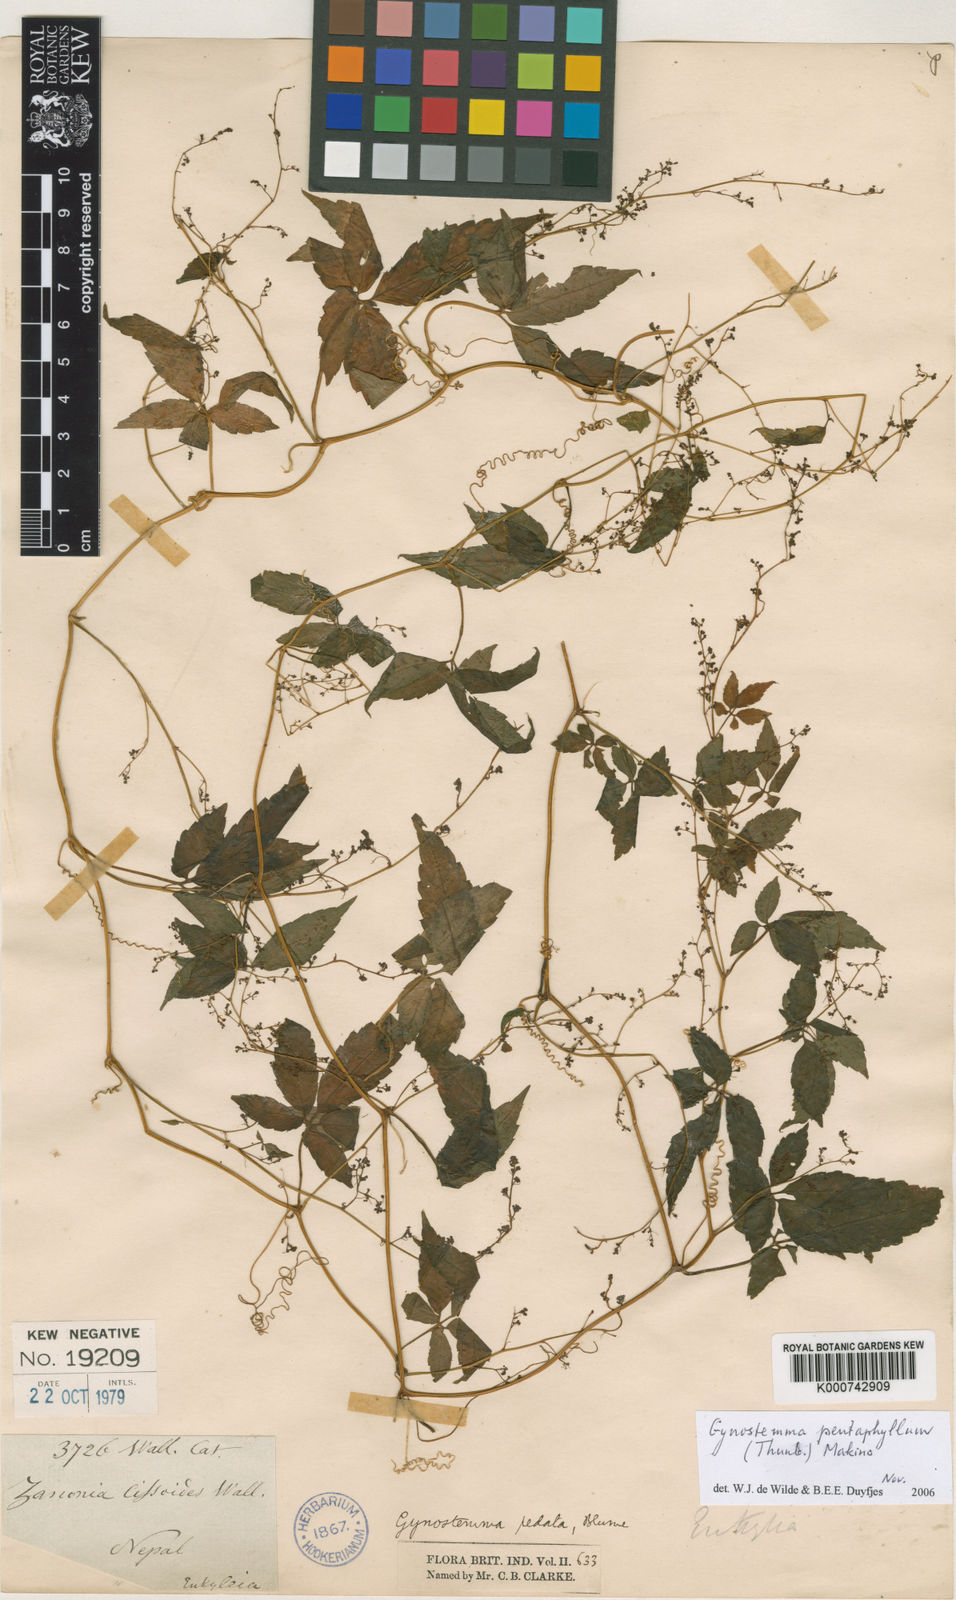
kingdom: Plantae
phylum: Tracheophyta
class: Magnoliopsida
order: Cucurbitales
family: Cucurbitaceae
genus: Gynostemma
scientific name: Gynostemma pentaphyllum
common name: Gynostemma
